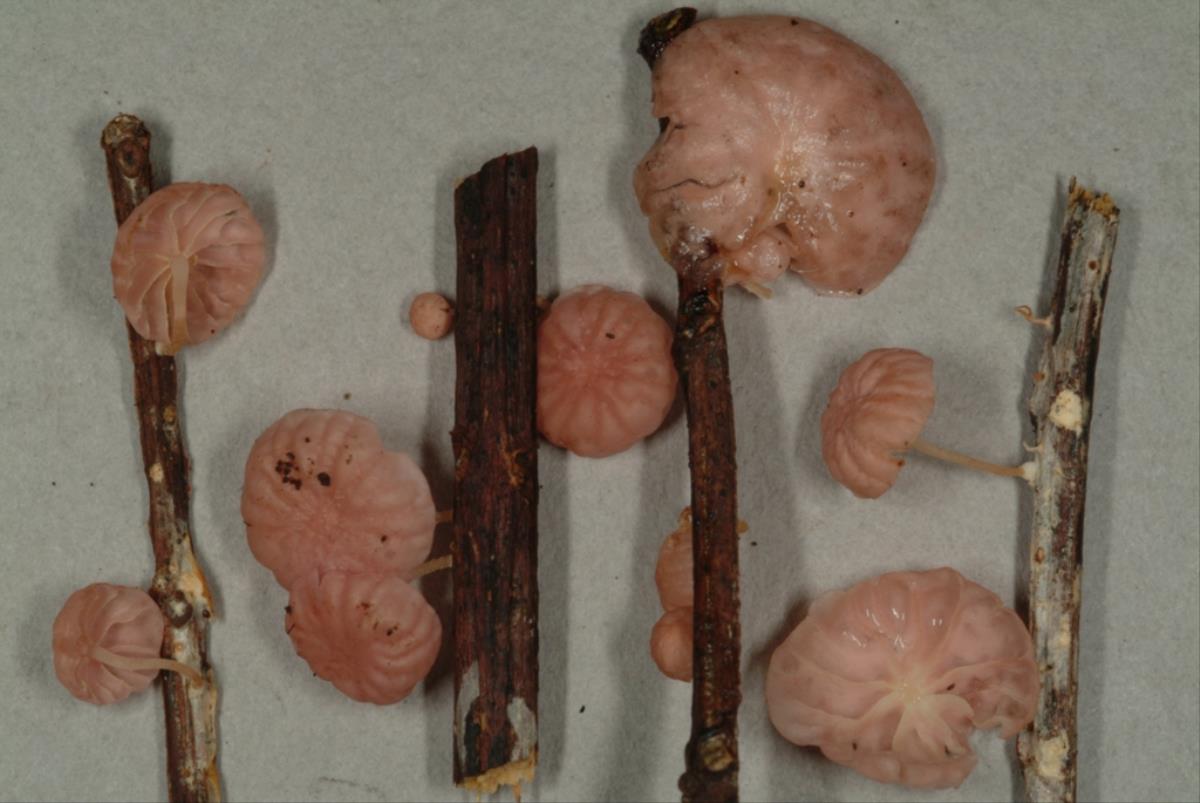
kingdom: Fungi
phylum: Basidiomycota
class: Agaricomycetes
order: Agaricales
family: Marasmiaceae
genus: Marasmius
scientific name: Marasmius
